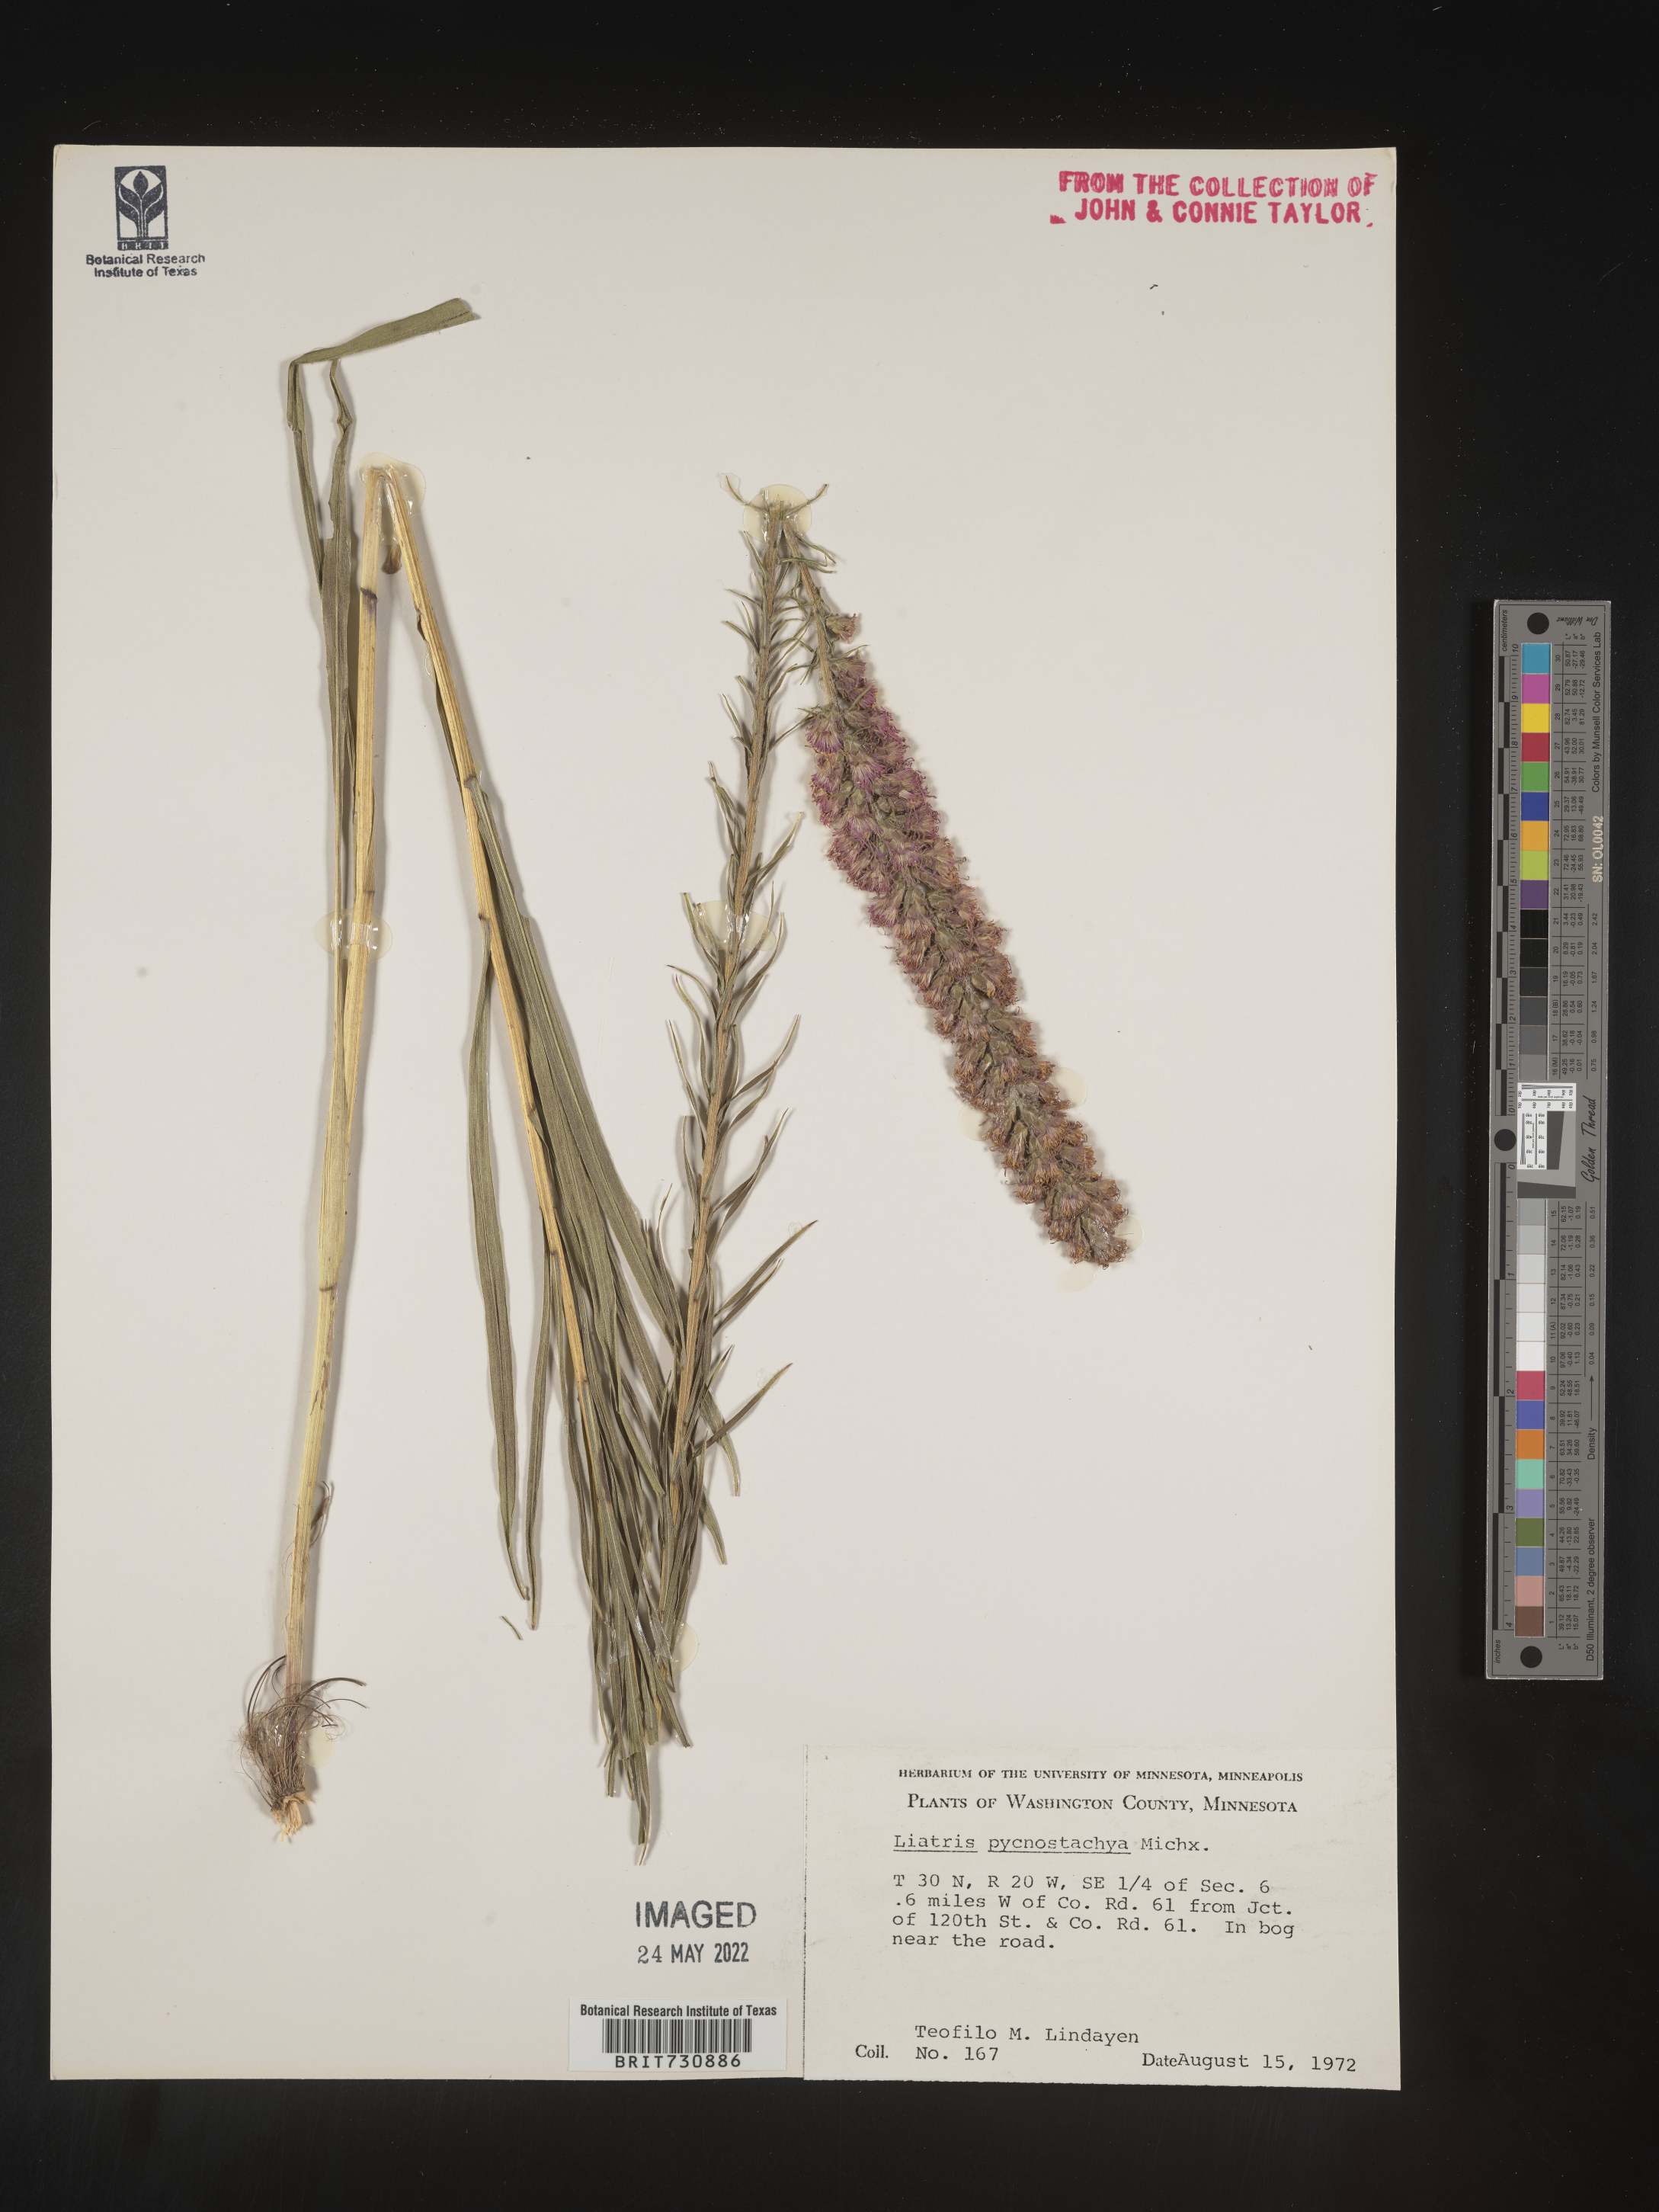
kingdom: Plantae
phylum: Tracheophyta
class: Magnoliopsida
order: Asterales
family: Asteraceae
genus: Liatris
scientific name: Liatris pycnostachya
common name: Cattail gayfeather
